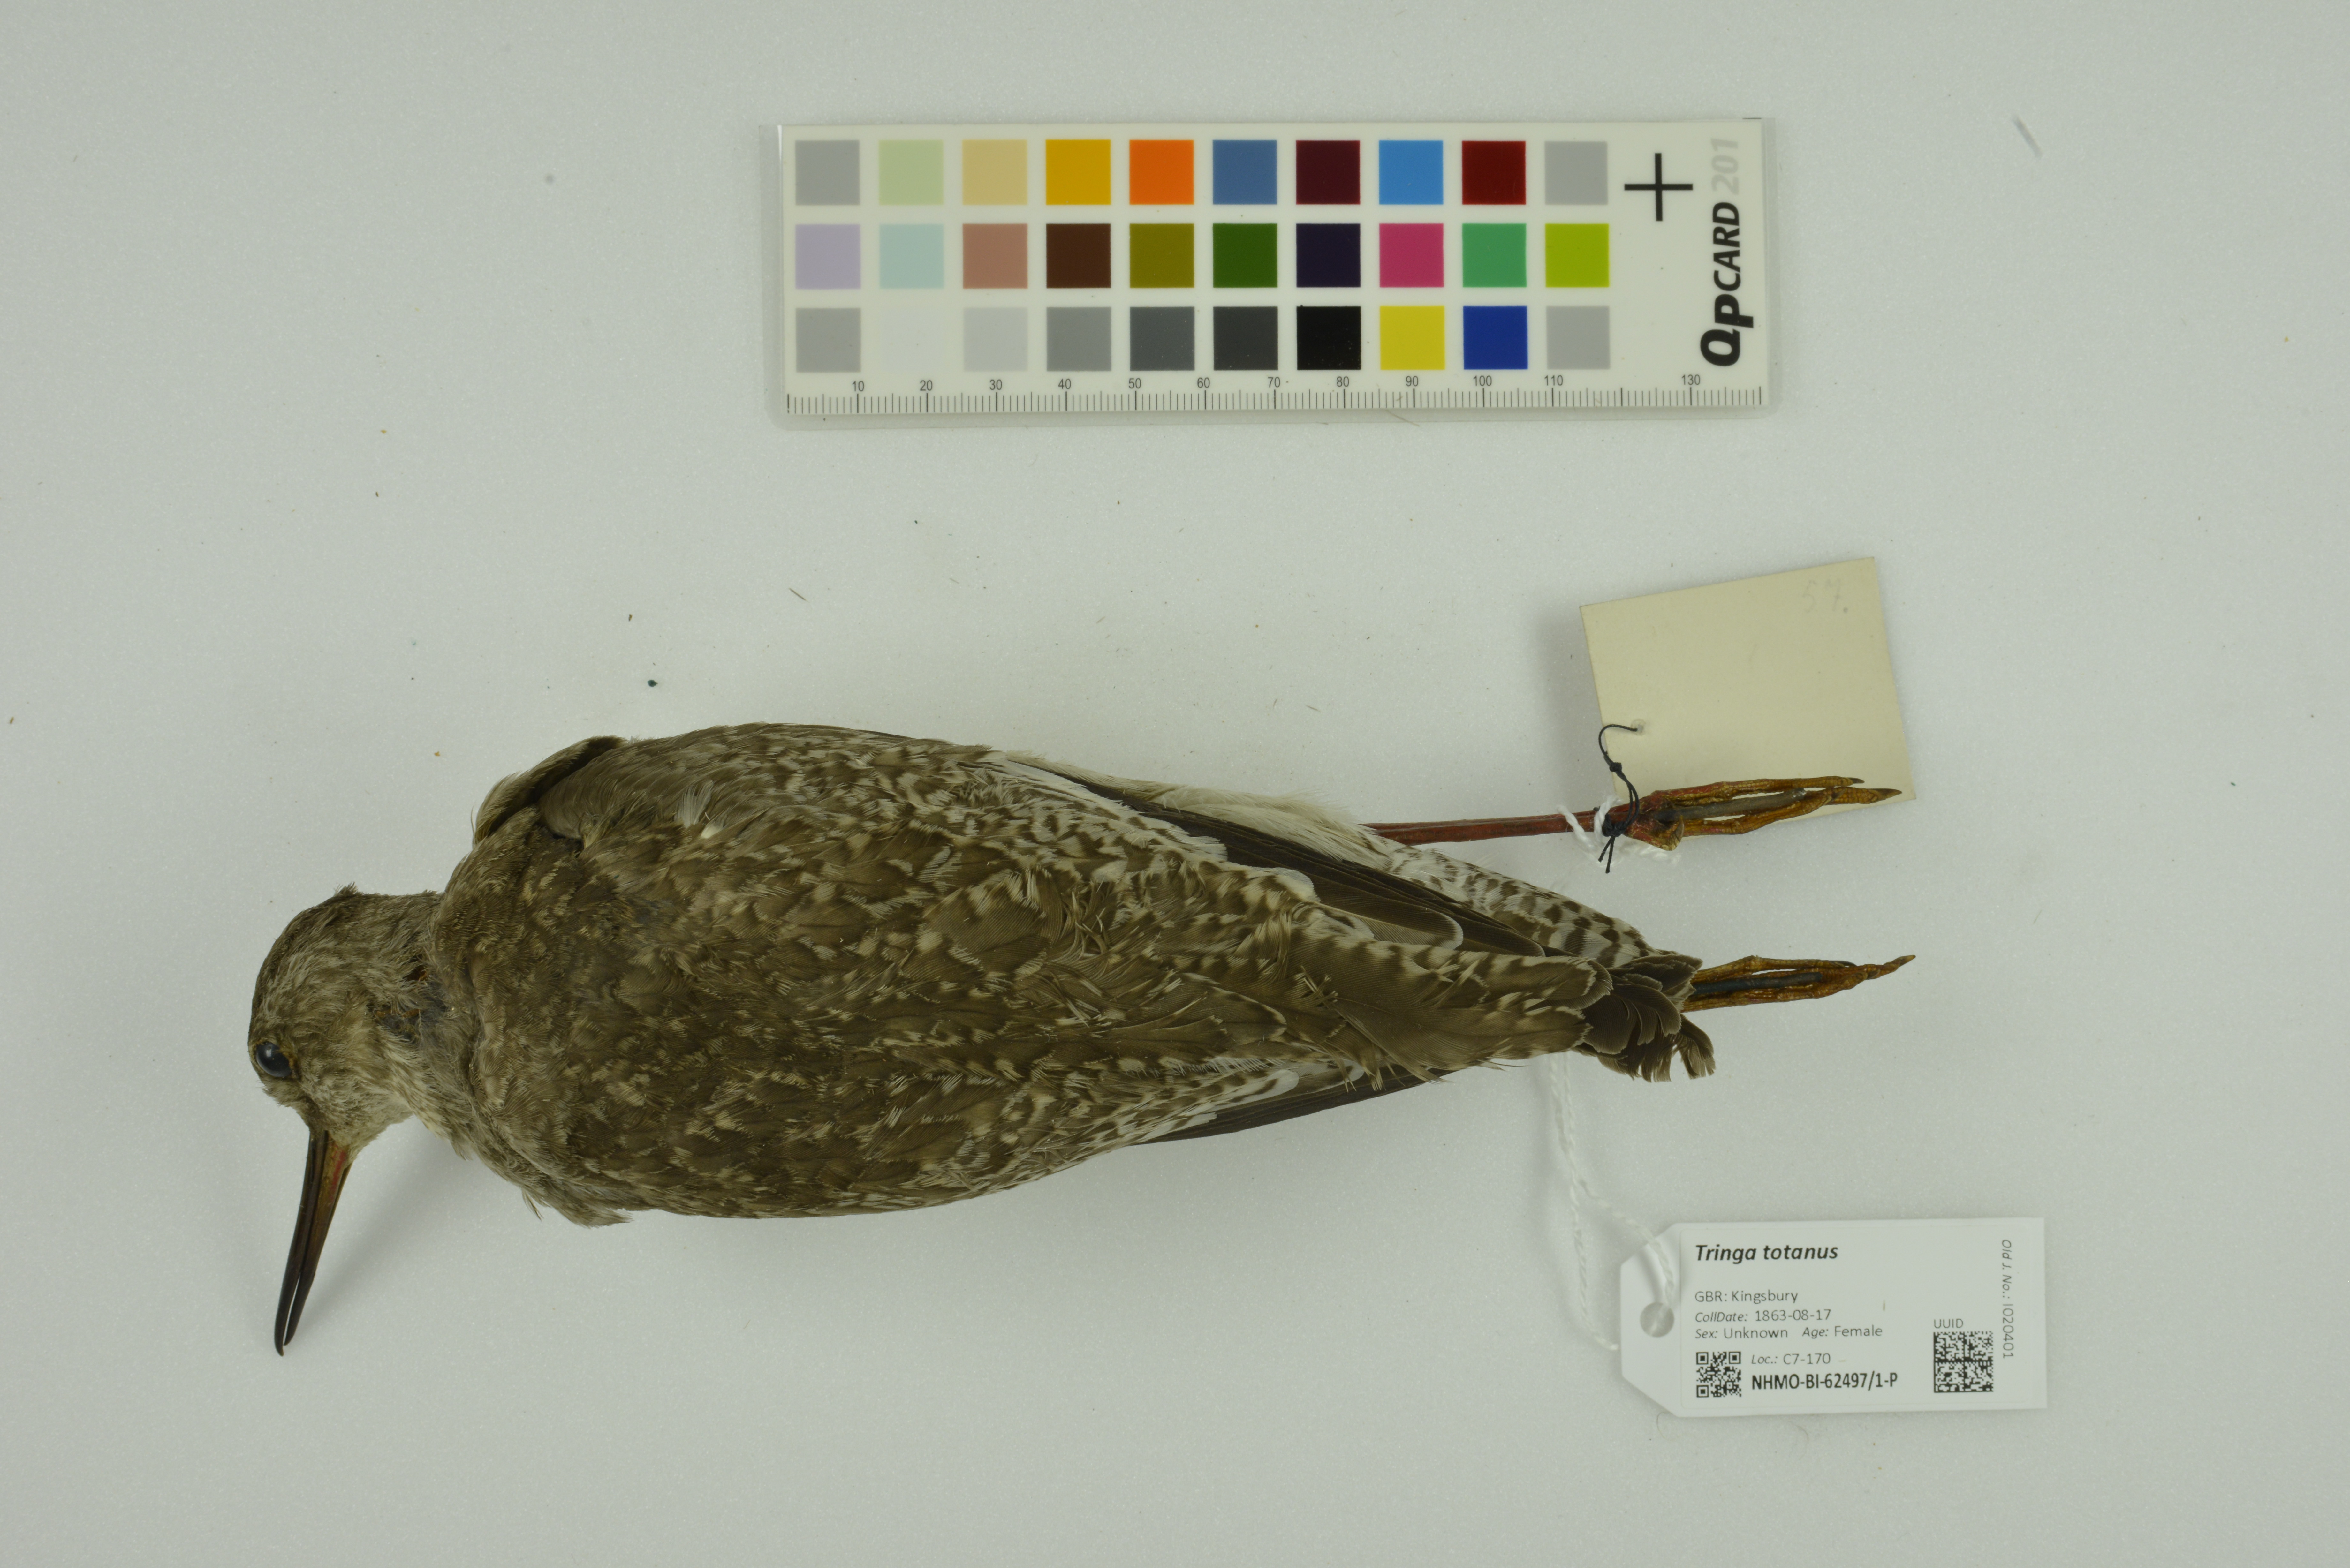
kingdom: Animalia
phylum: Chordata
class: Aves
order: Charadriiformes
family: Scolopacidae
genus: Tringa
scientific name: Tringa totanus
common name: Common redshank
